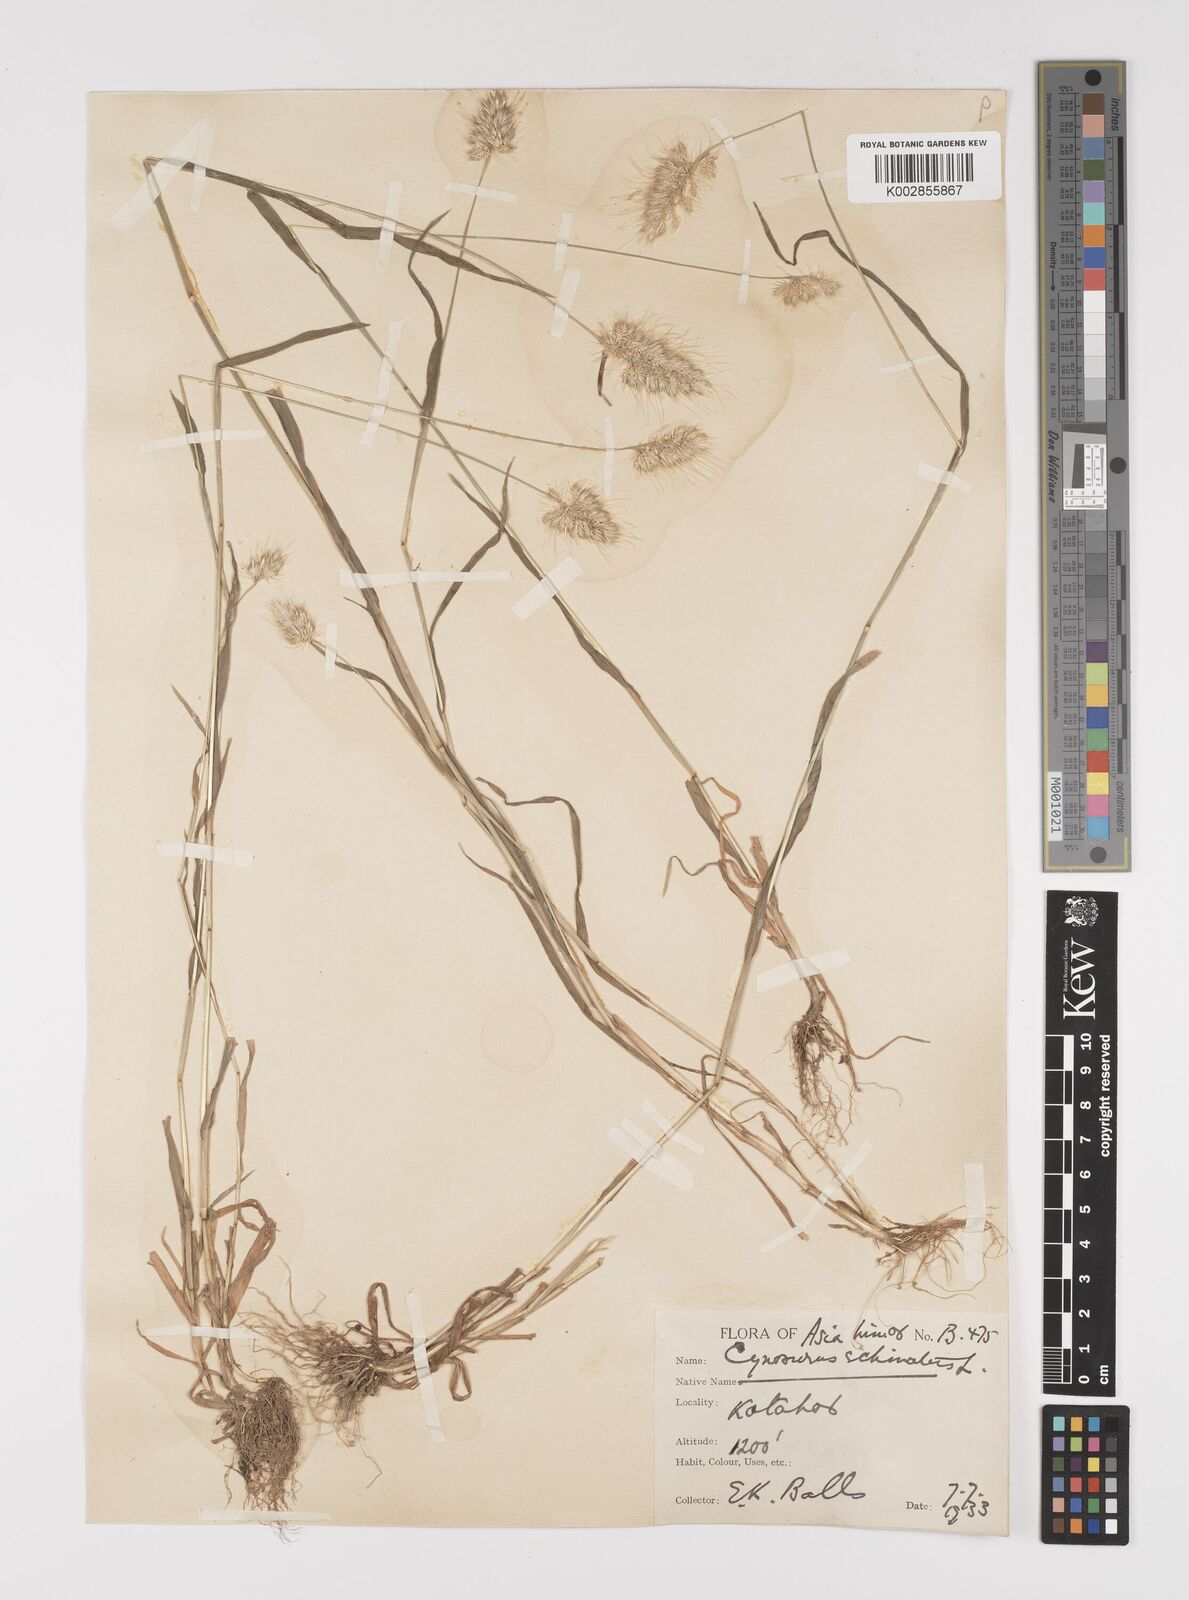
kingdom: Plantae
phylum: Tracheophyta
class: Liliopsida
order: Poales
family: Poaceae
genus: Cynosurus
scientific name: Cynosurus echinatus
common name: Rough dog's-tail
